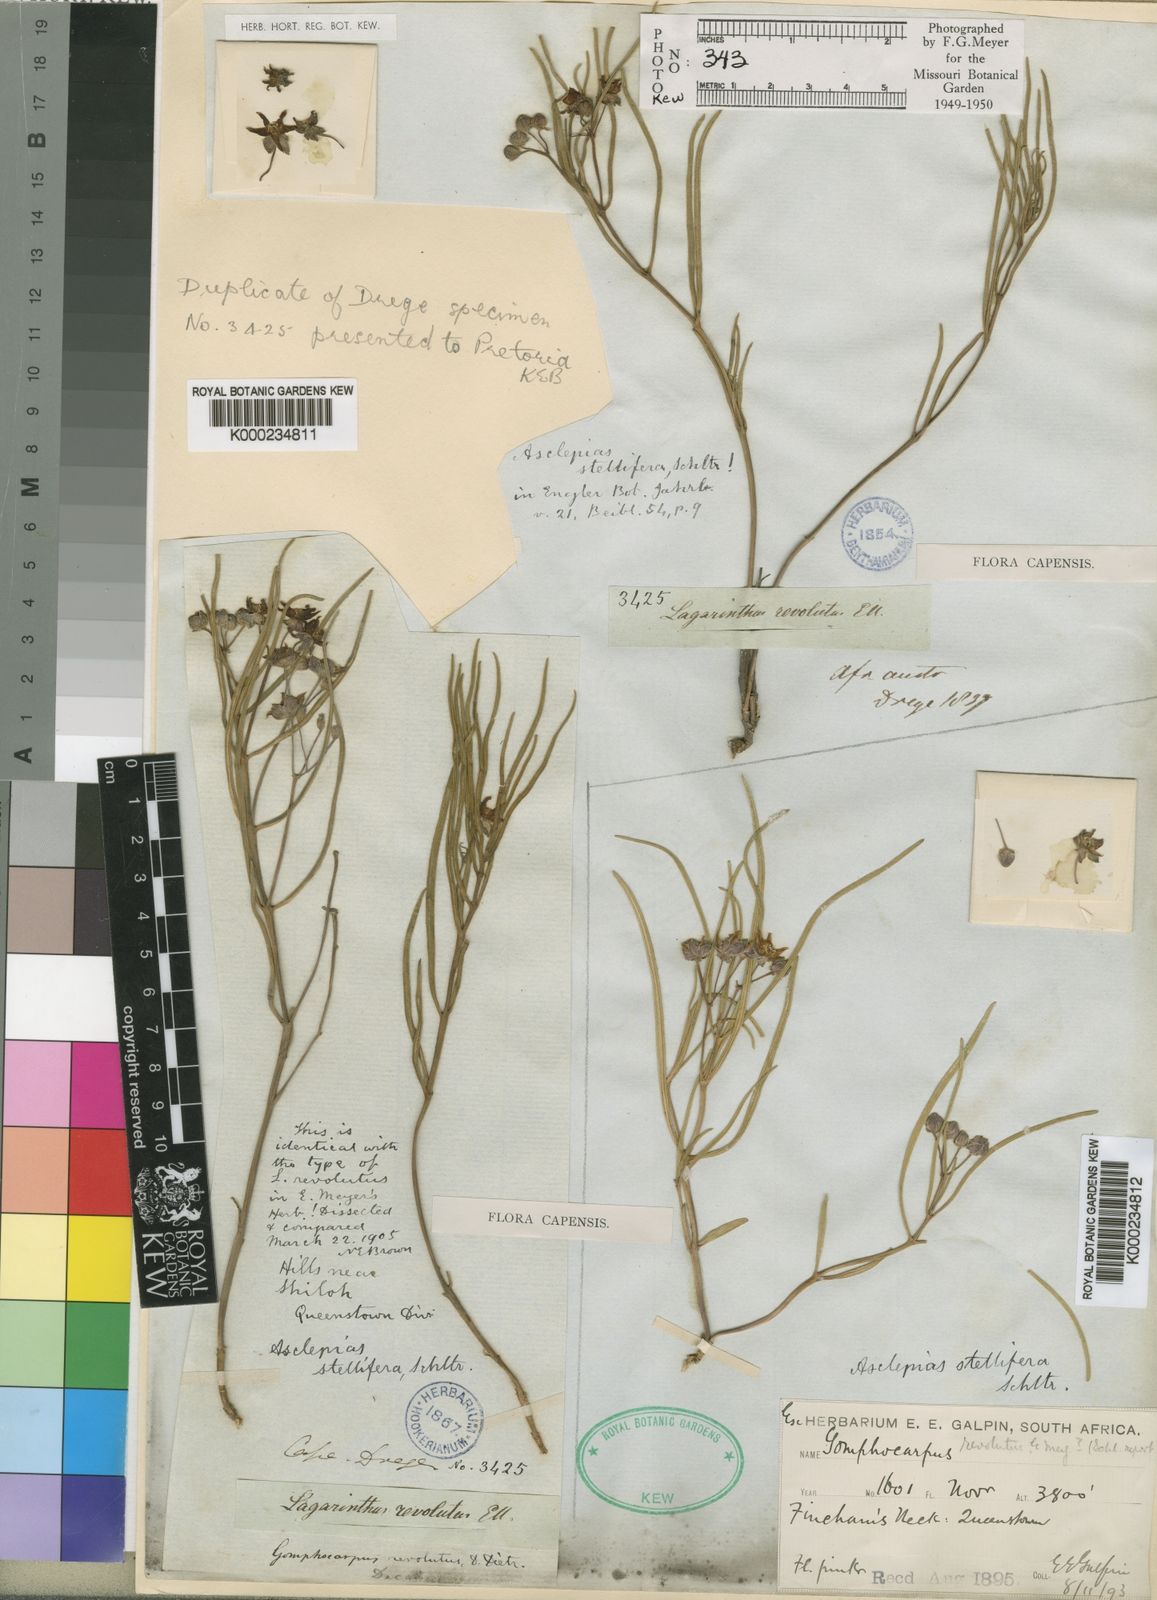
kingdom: Plantae
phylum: Tracheophyta
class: Magnoliopsida
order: Gentianales
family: Apocynaceae
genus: Asclepias
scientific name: Asclepias stellifera
